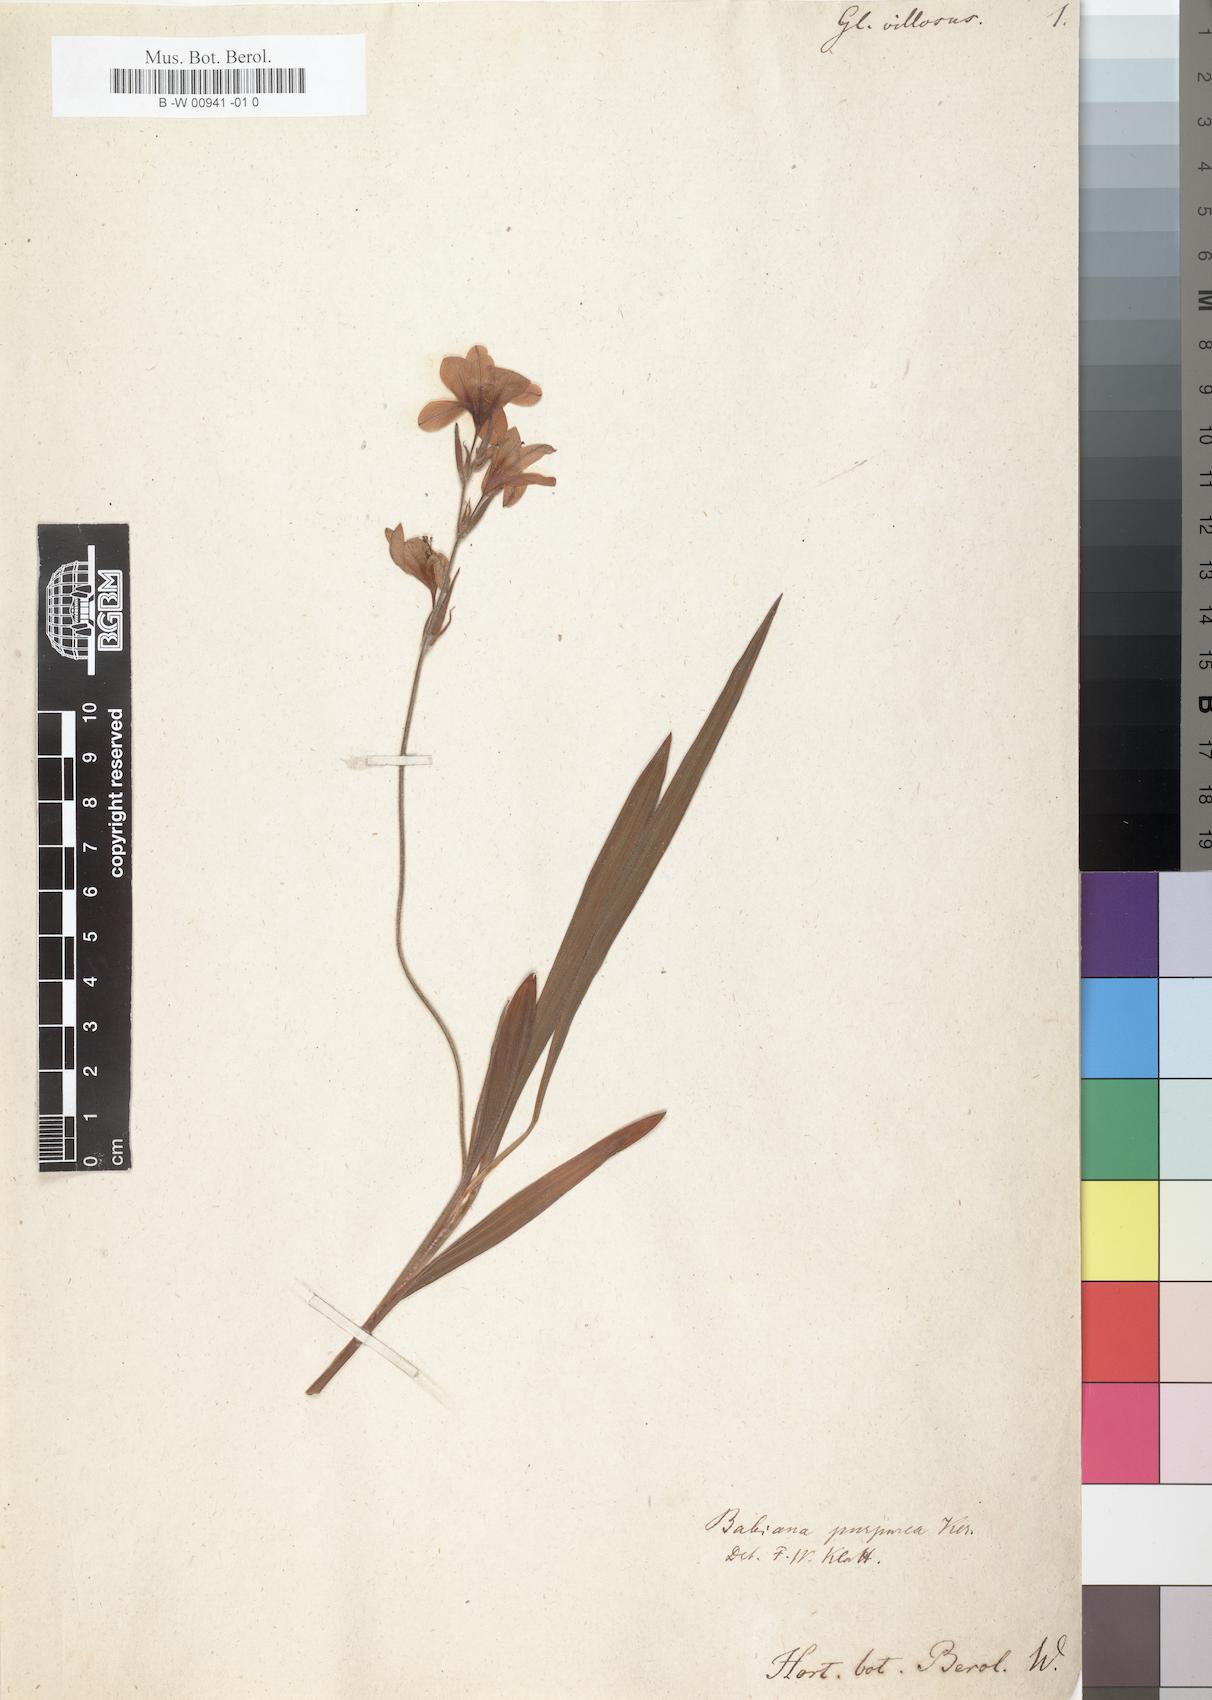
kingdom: Plantae
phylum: Tracheophyta
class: Liliopsida
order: Asparagales
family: Iridaceae
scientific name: Iridaceae
